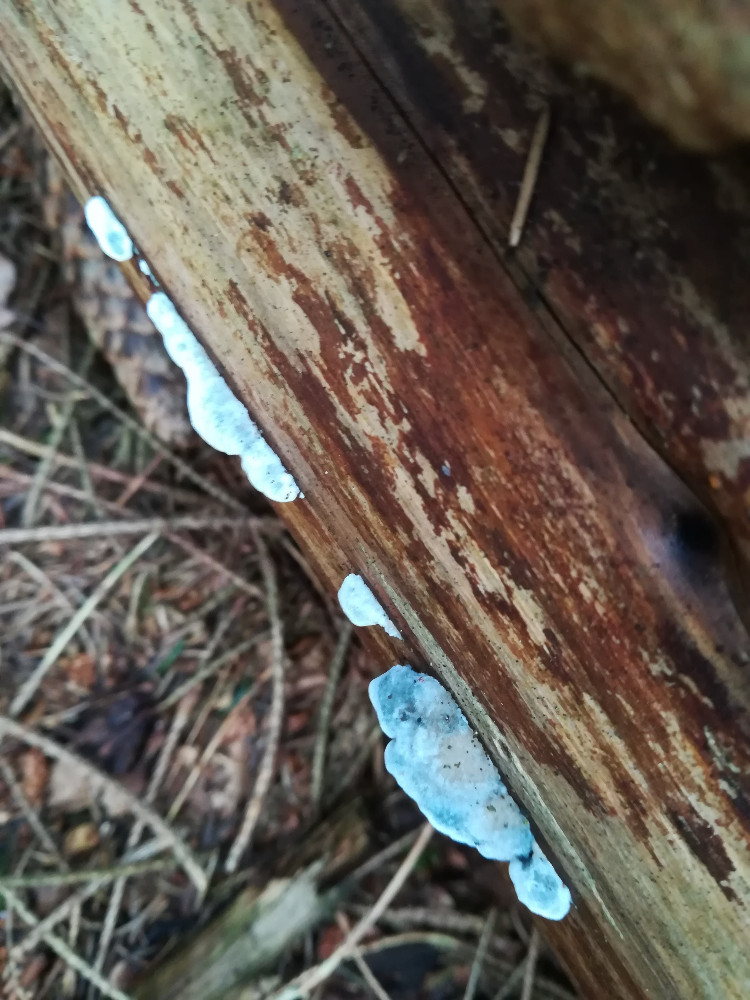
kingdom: Fungi
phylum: Basidiomycota
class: Agaricomycetes
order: Polyporales
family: Polyporaceae
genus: Cyanosporus
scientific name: Cyanosporus caesius
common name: blålig kødporesvamp
